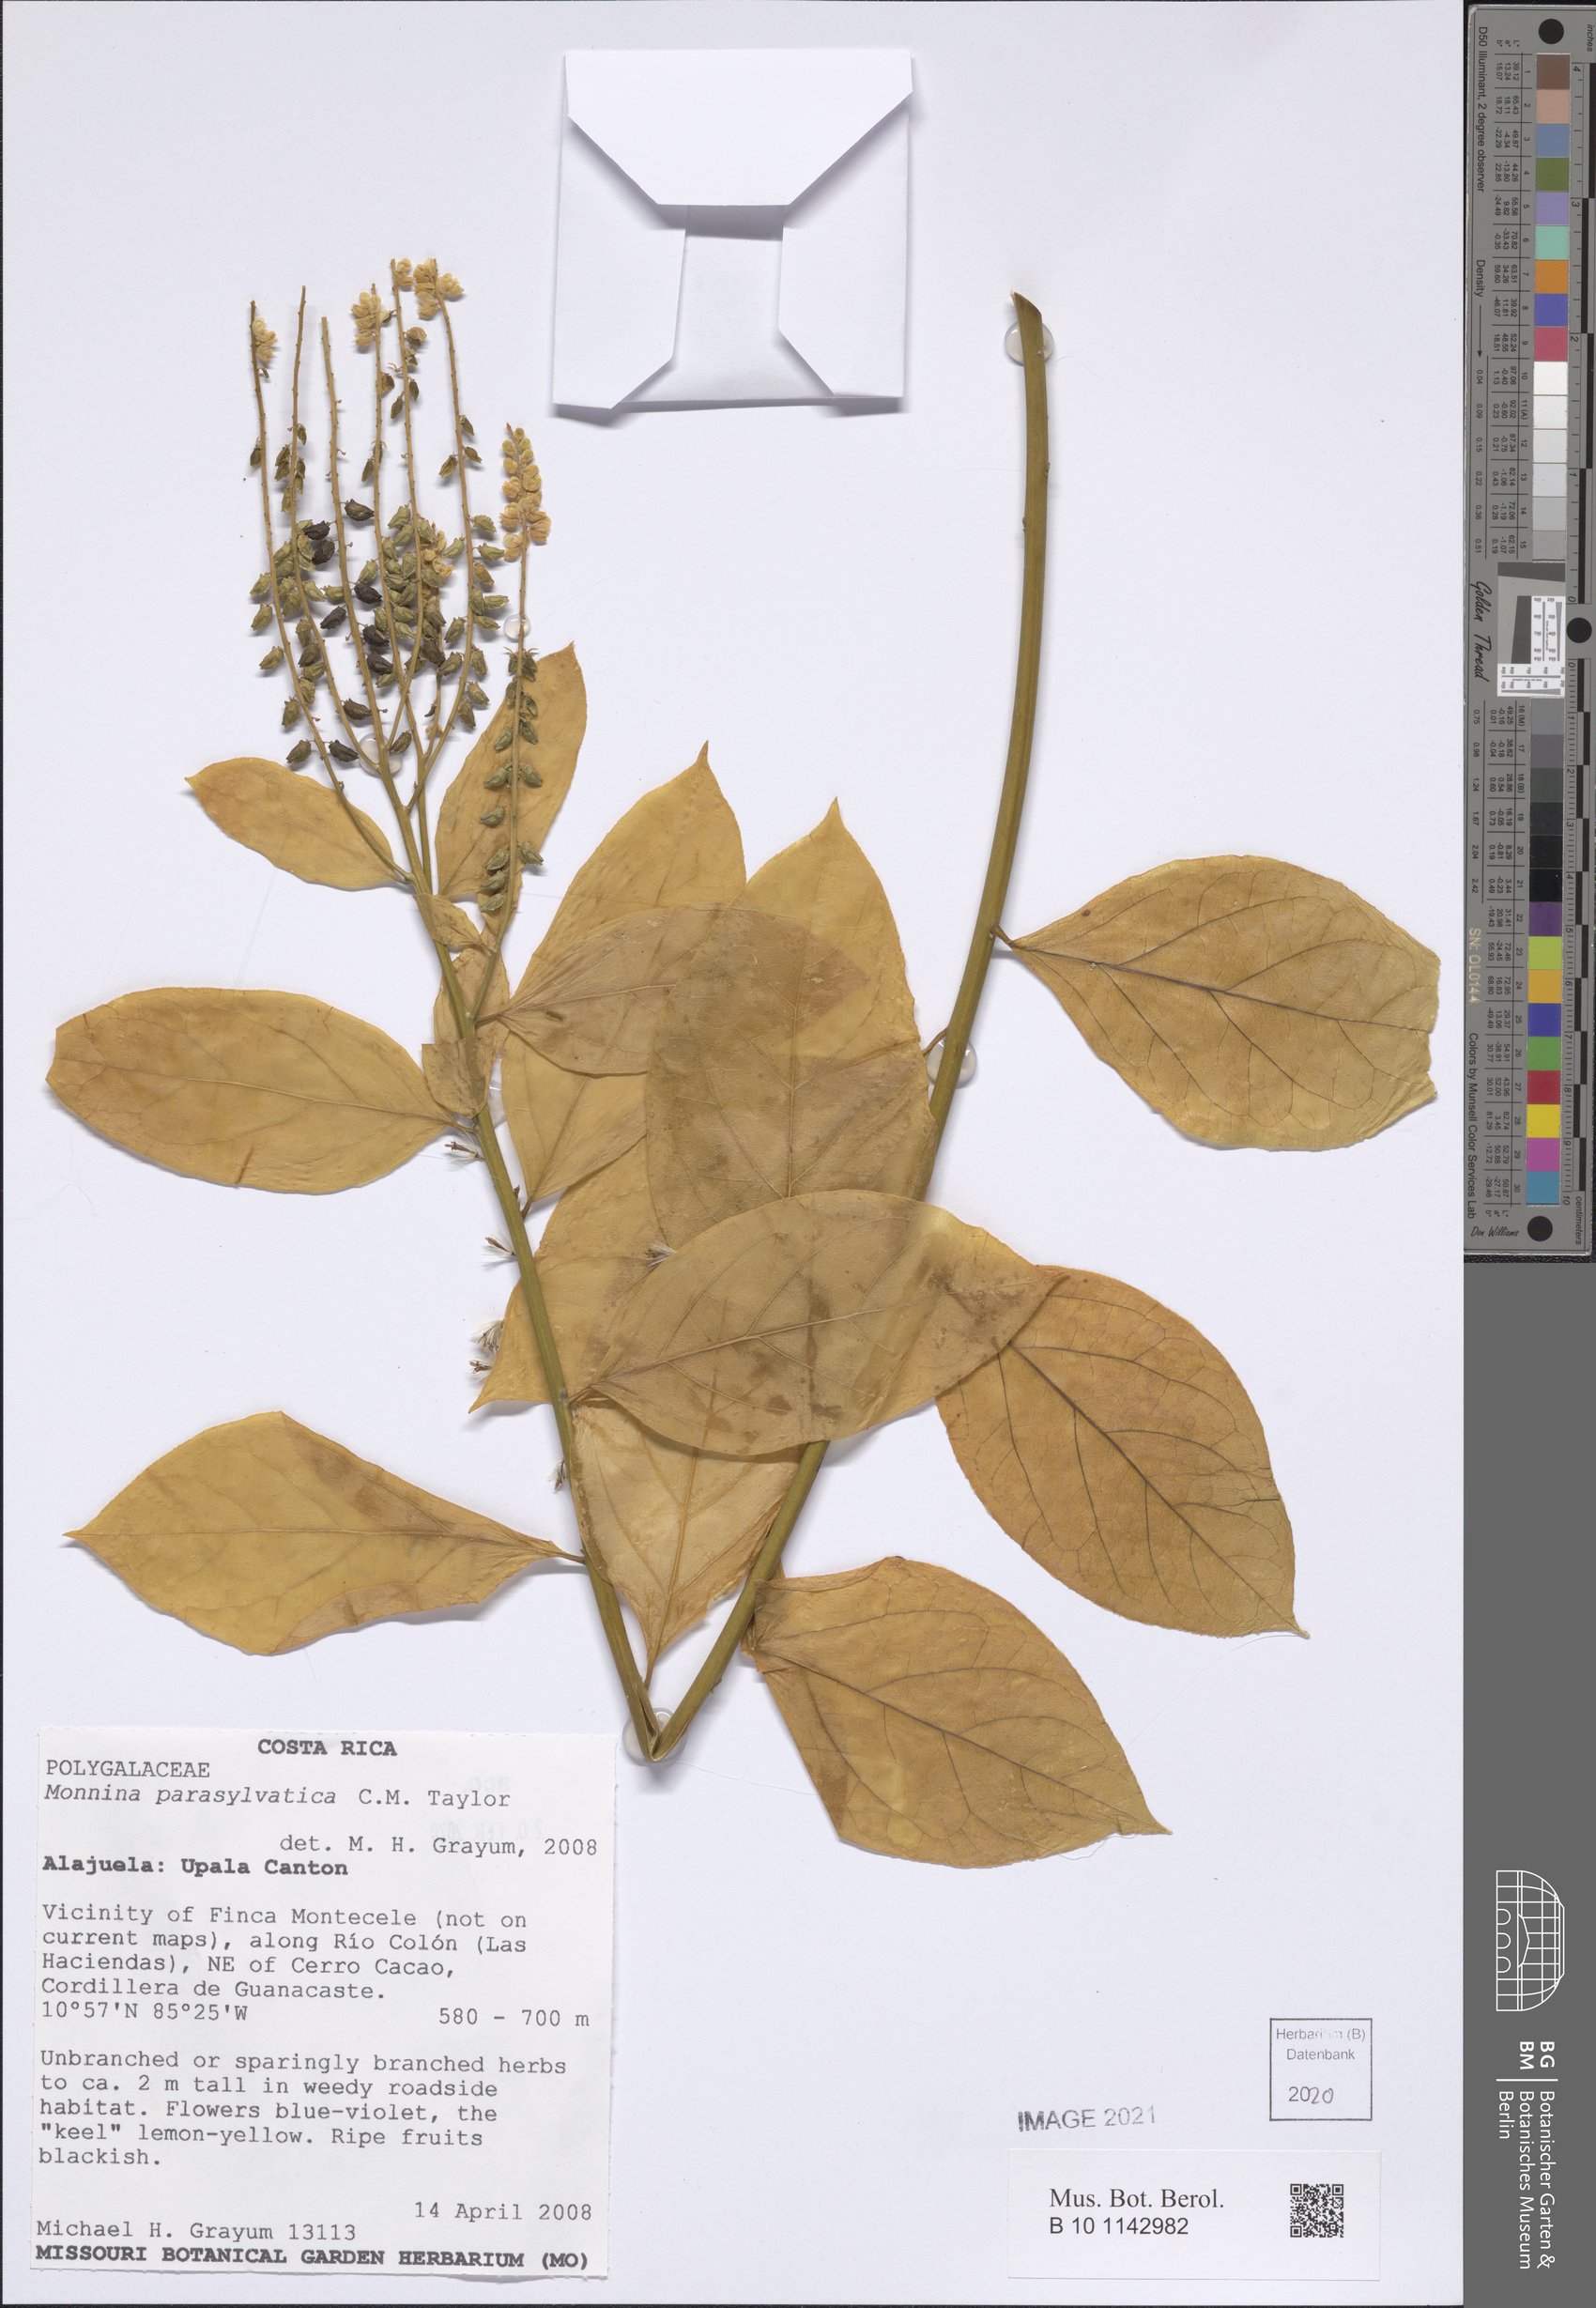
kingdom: Plantae
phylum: Tracheophyta
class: Magnoliopsida
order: Fabales
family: Polygalaceae
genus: Monnina
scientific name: Monnina parasylvatica
